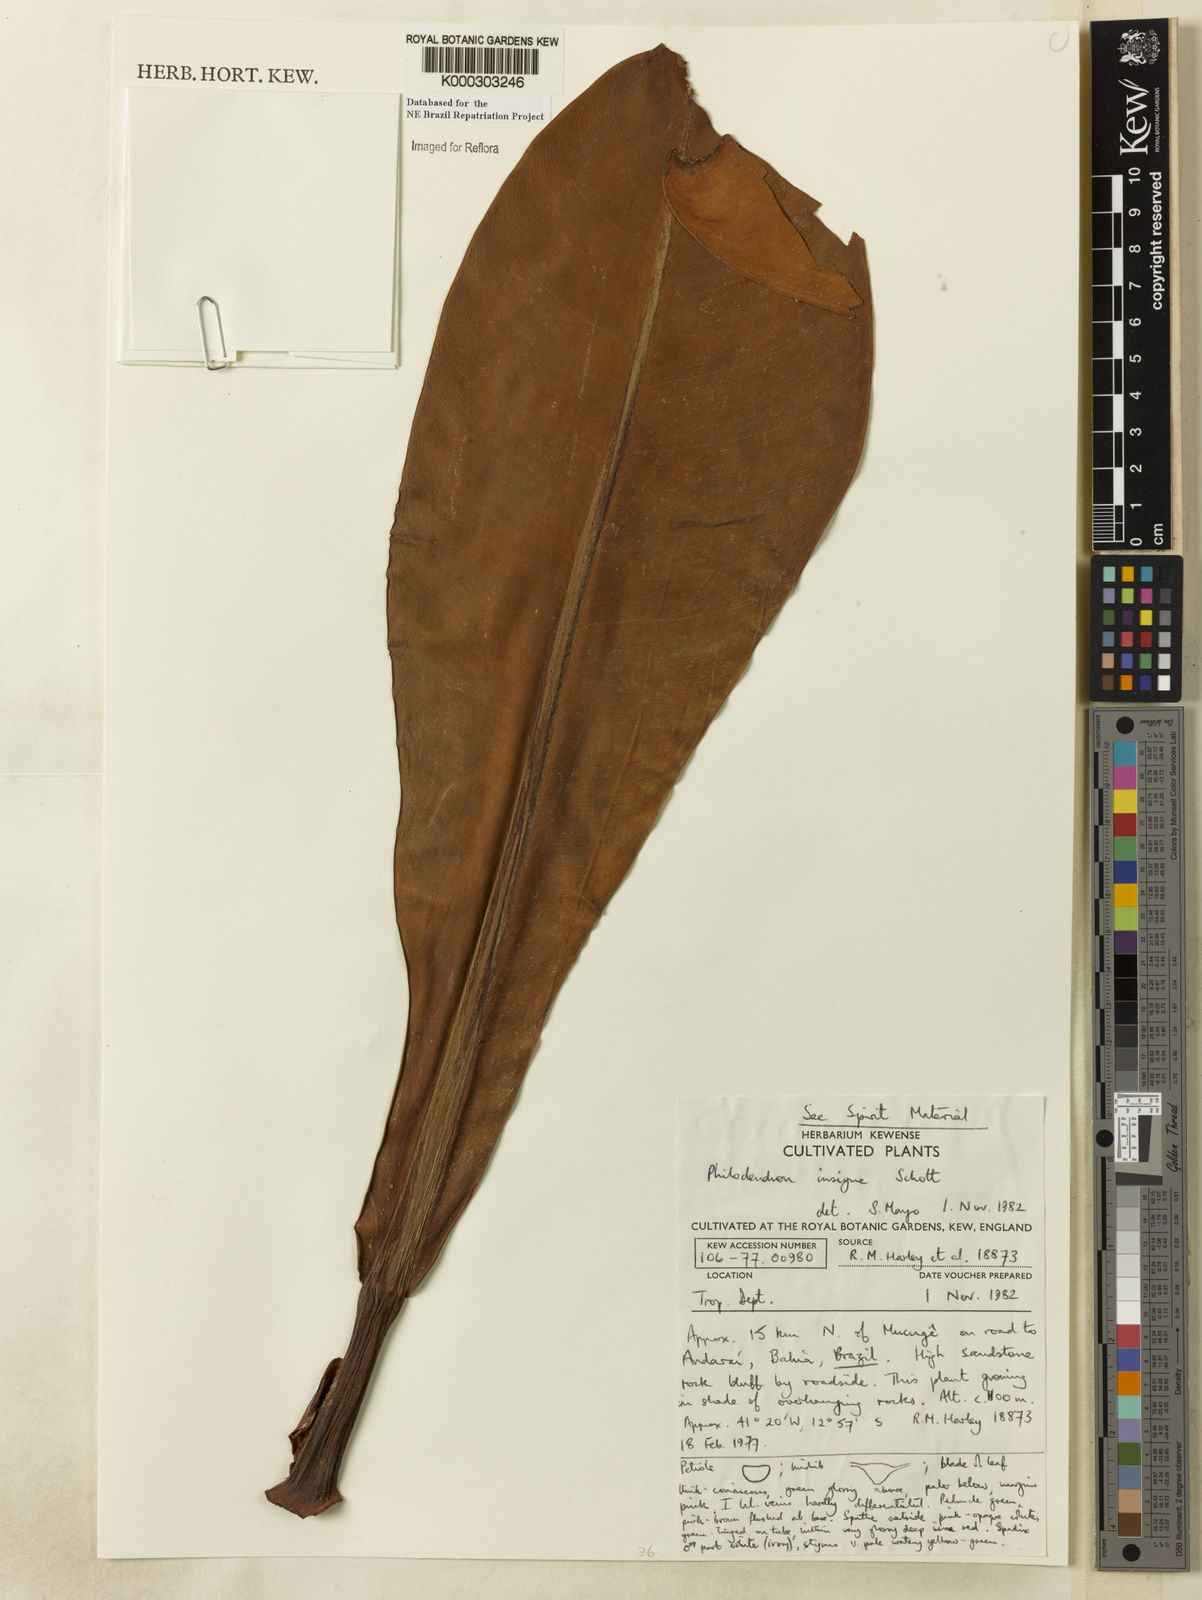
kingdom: Plantae
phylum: Tracheophyta
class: Liliopsida
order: Alismatales
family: Araceae
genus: Philodendron
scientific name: Philodendron insigne
